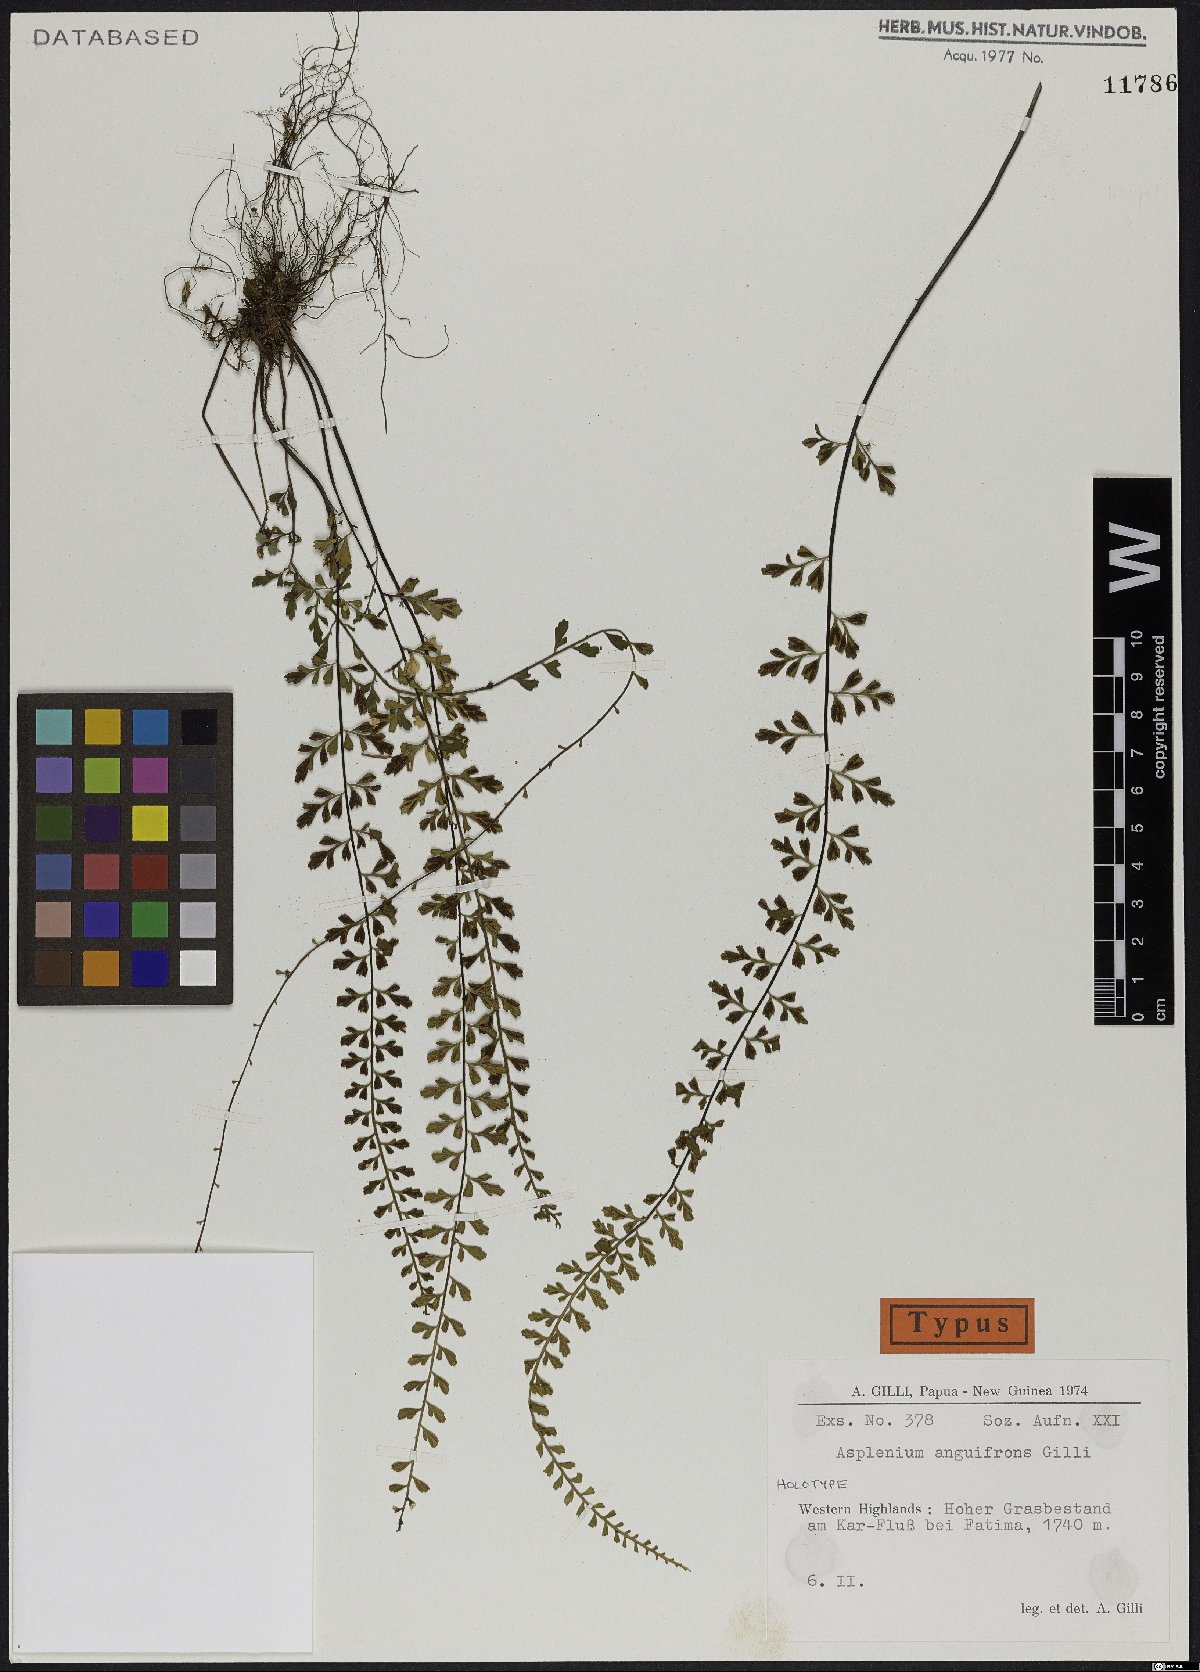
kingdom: Plantae
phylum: Tracheophyta
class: Polypodiopsida
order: Polypodiales
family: Aspleniaceae
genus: Asplenium
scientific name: Asplenium anguifrons
